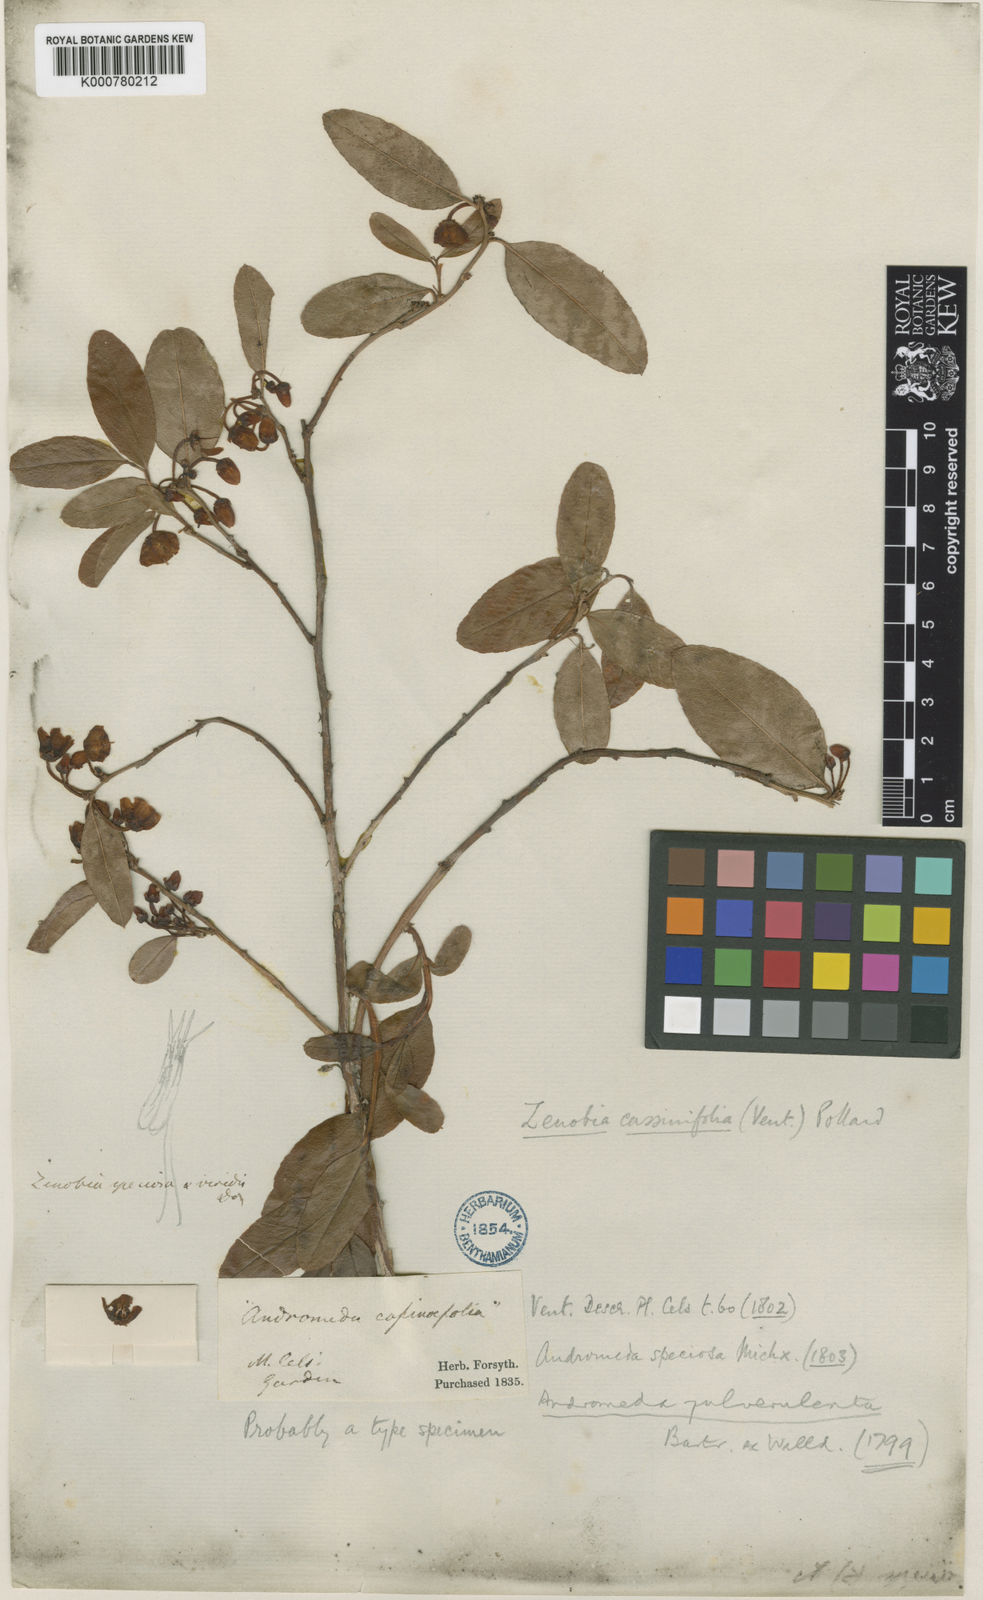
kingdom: Plantae
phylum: Tracheophyta
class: Magnoliopsida
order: Ericales
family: Ericaceae
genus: Zenobia
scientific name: Zenobia pulverulenta
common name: Zenobia
